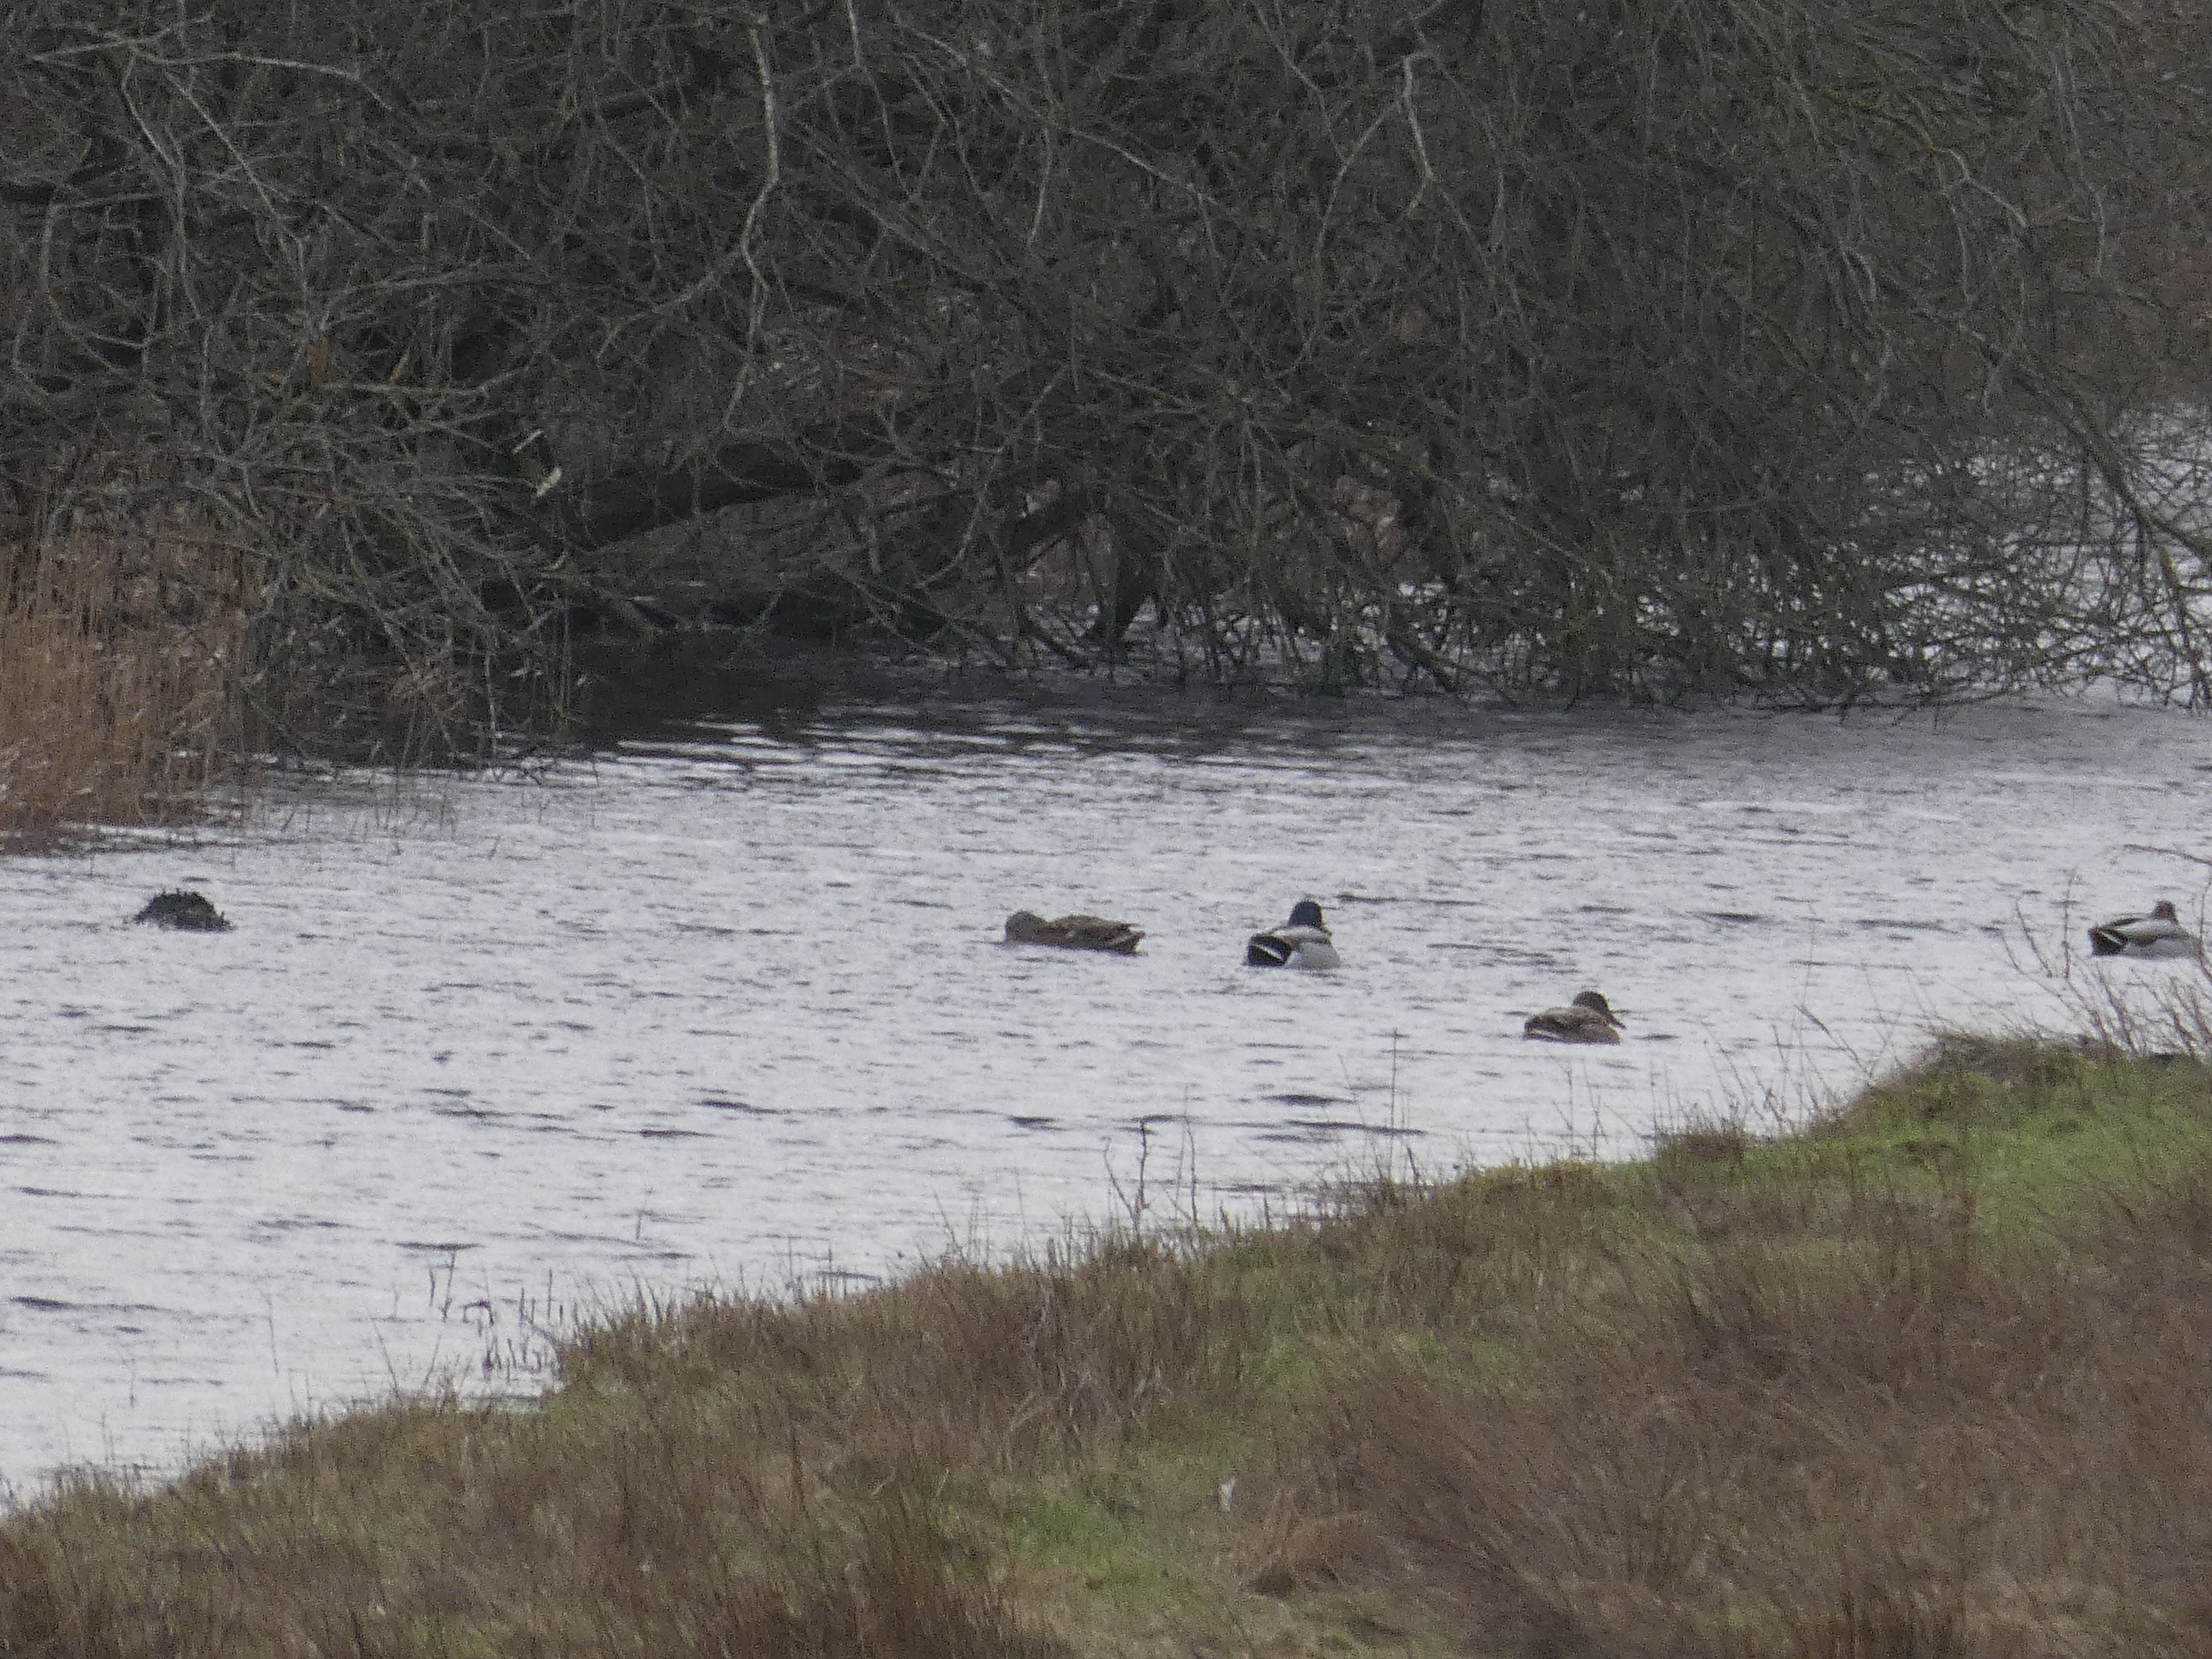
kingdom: Animalia
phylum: Chordata
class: Aves
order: Anseriformes
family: Anatidae
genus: Anas
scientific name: Anas platyrhynchos
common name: Gråand
